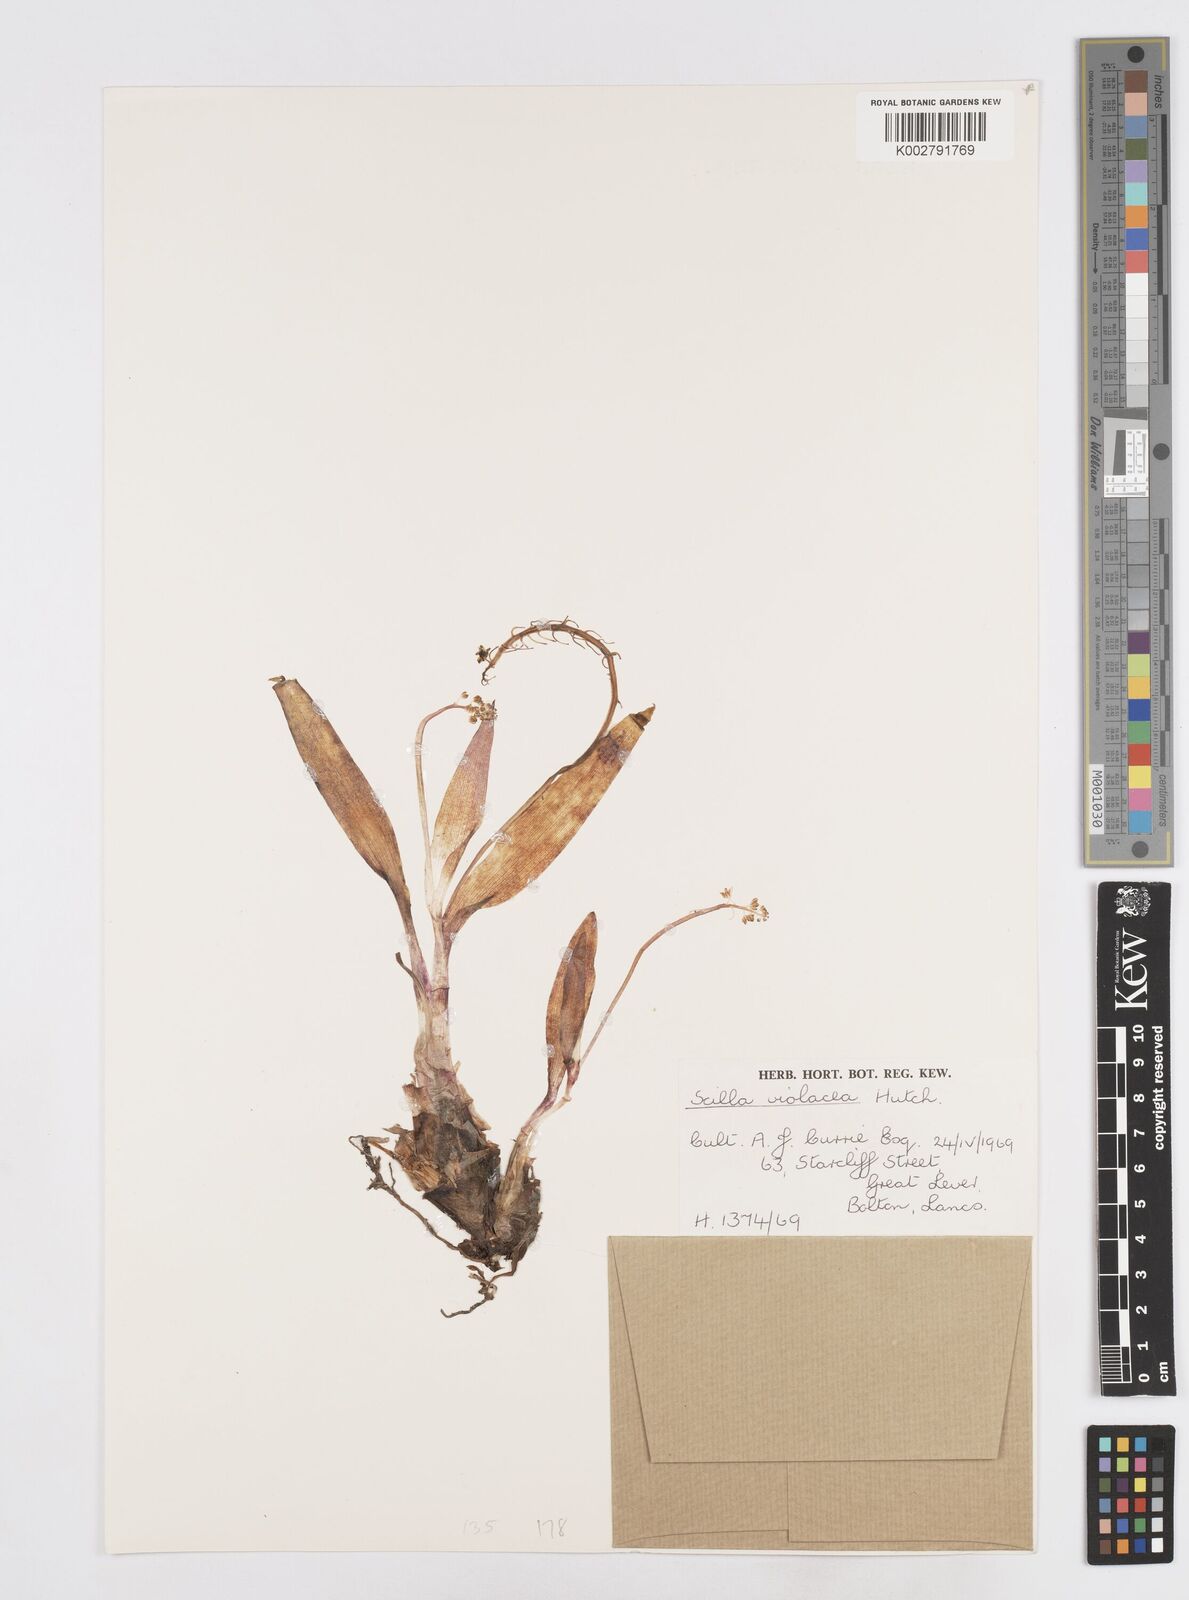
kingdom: Plantae
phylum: Tracheophyta
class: Liliopsida
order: Asparagales
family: Asparagaceae
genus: Ledebouria
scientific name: Ledebouria socialis
